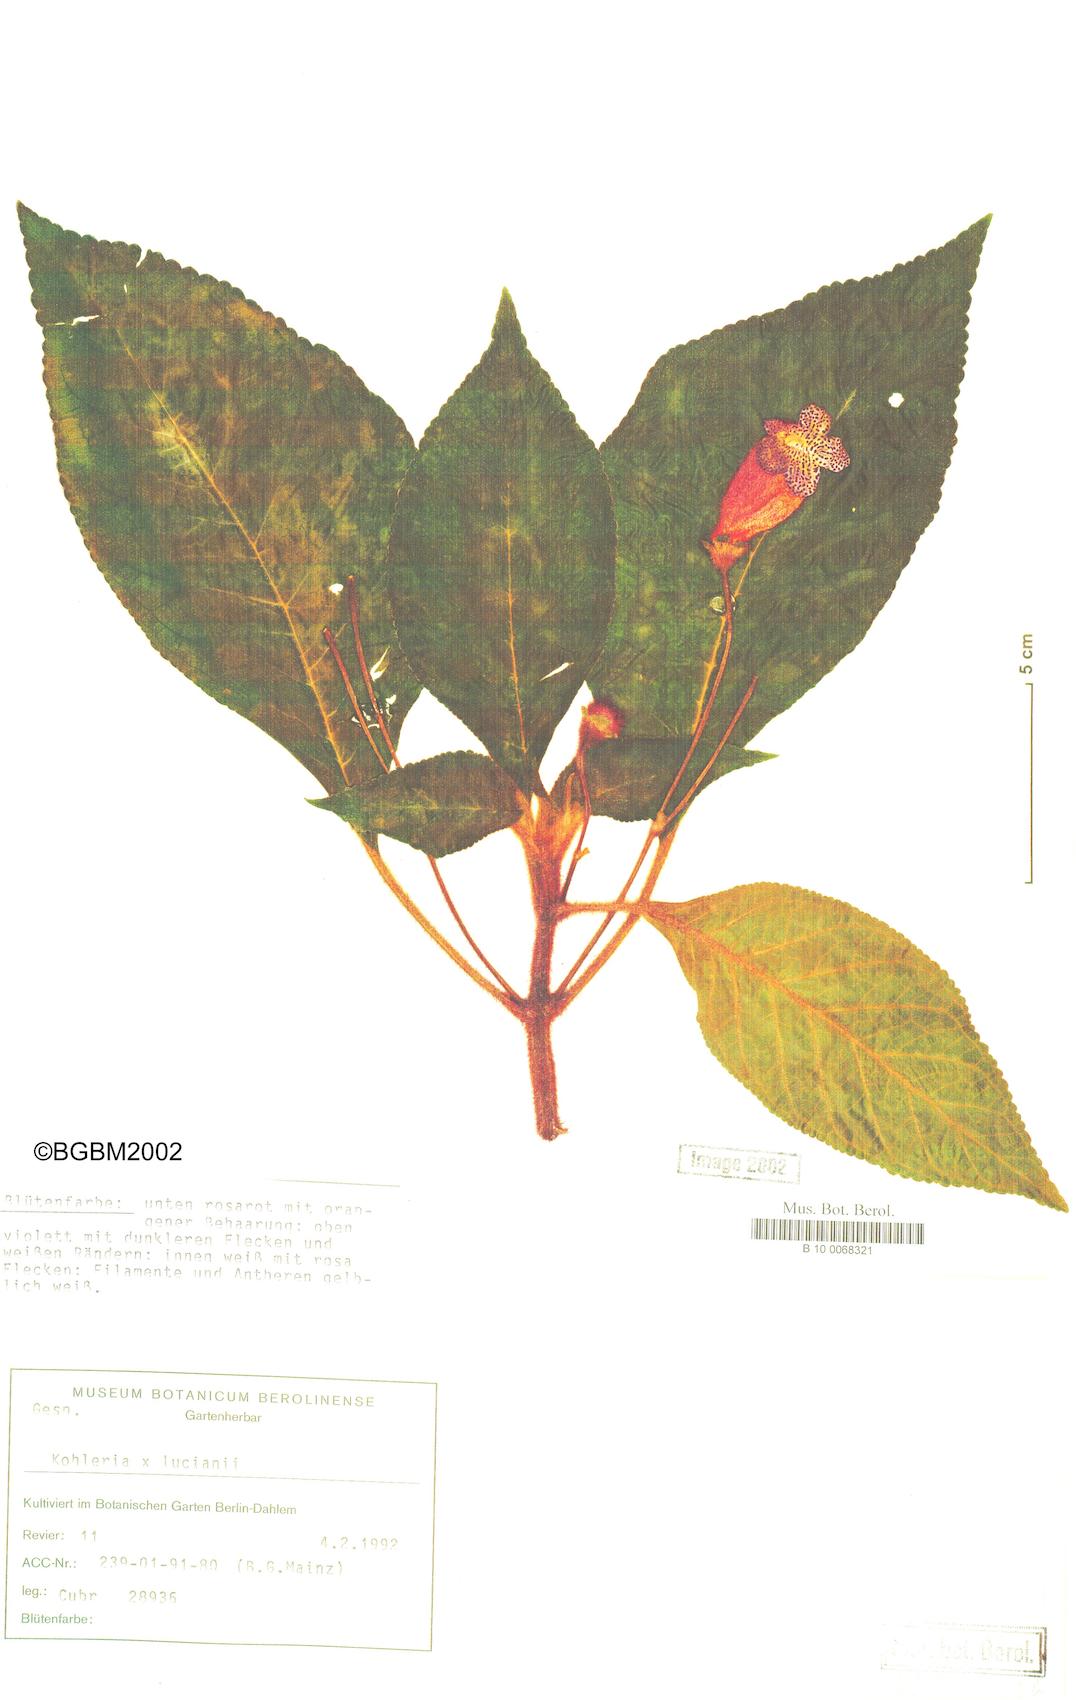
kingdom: Plantae
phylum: Tracheophyta
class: Magnoliopsida
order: Lamiales
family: Gesneriaceae
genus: Kohleria
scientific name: Kohleria lucianii
